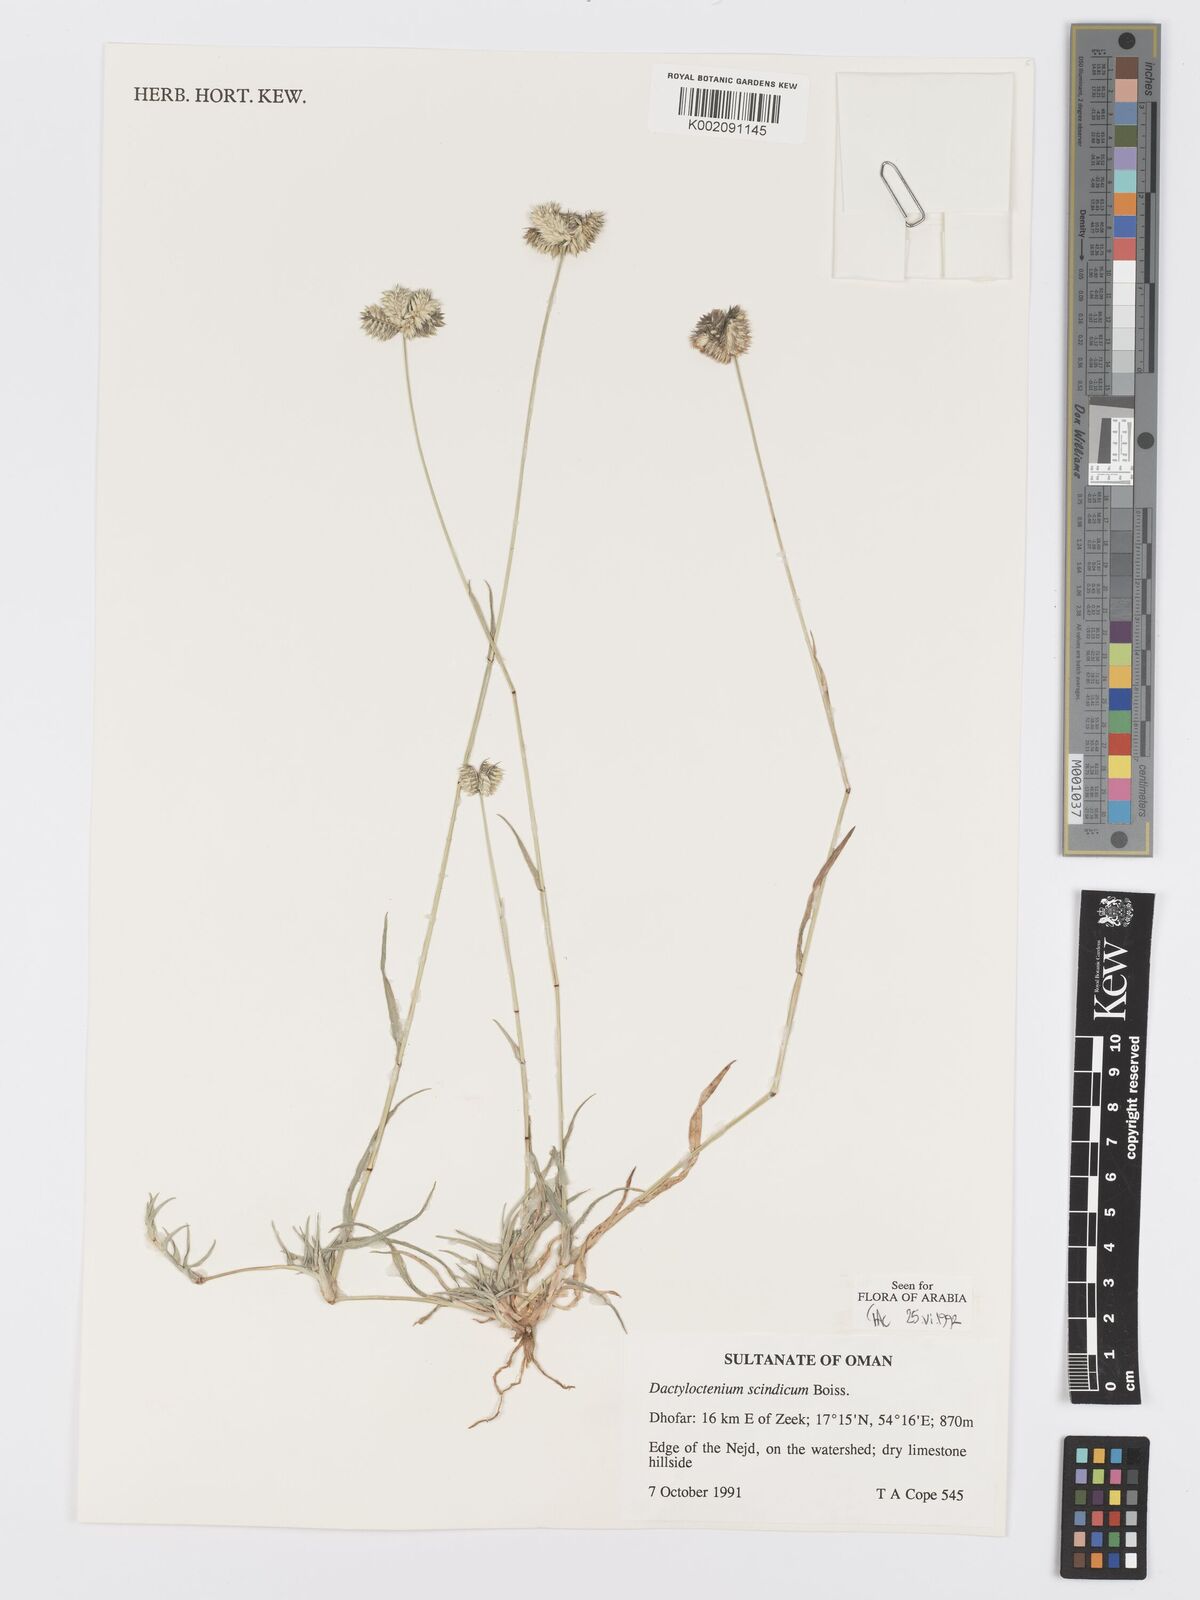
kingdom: Plantae
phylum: Tracheophyta
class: Liliopsida
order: Poales
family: Poaceae
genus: Dactyloctenium
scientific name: Dactyloctenium scindicum
